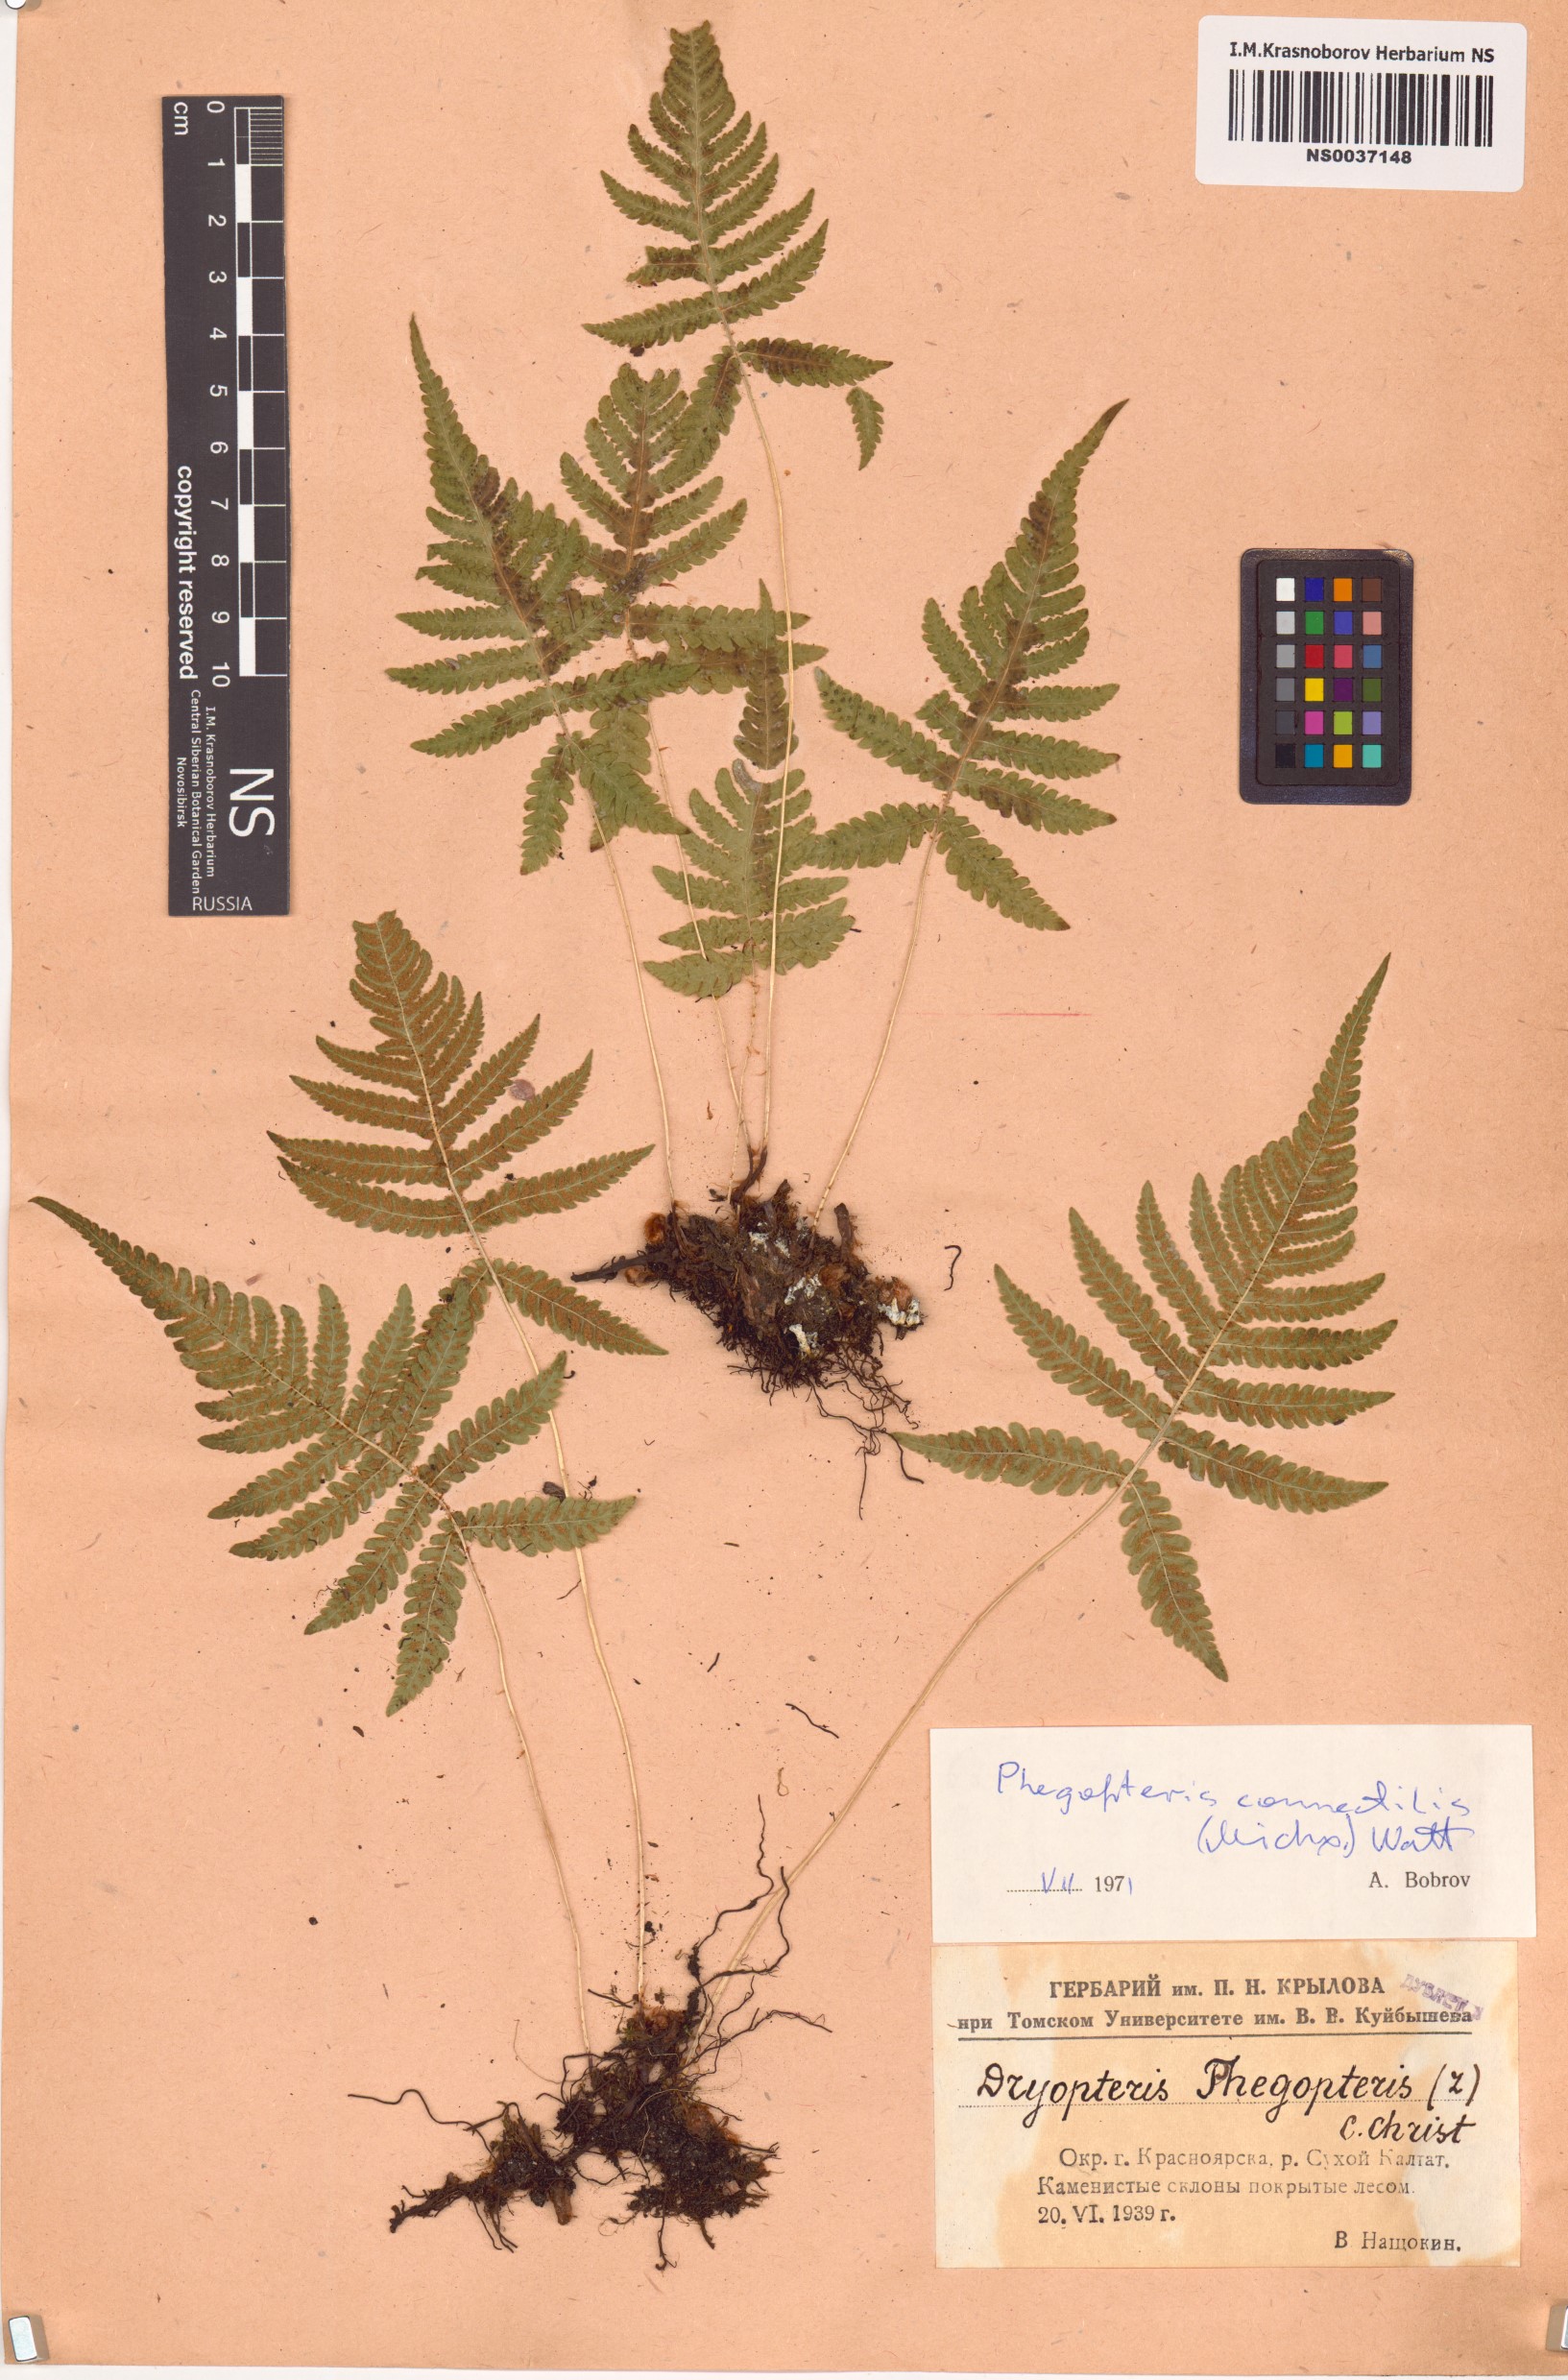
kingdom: Plantae
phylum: Tracheophyta
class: Polypodiopsida
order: Polypodiales
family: Thelypteridaceae
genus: Phegopteris
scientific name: Phegopteris connectilis
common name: Beech fern
